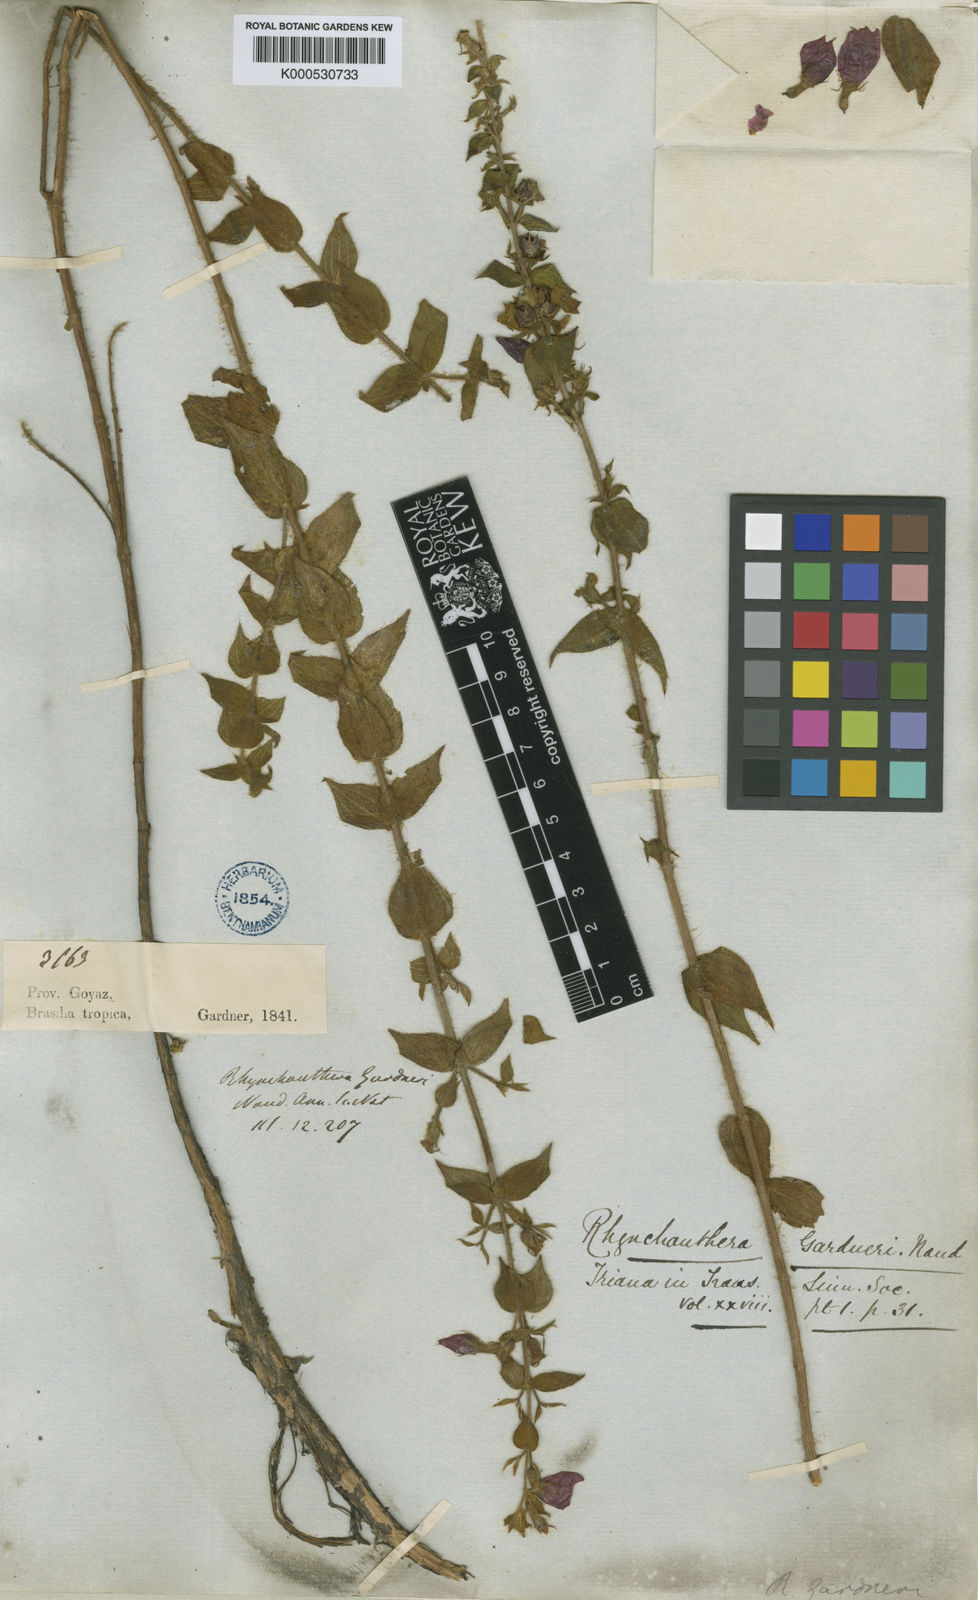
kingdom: Plantae
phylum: Tracheophyta
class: Magnoliopsida
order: Myrtales
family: Melastomataceae
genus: Rhynchanthera
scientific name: Rhynchanthera gardneri
